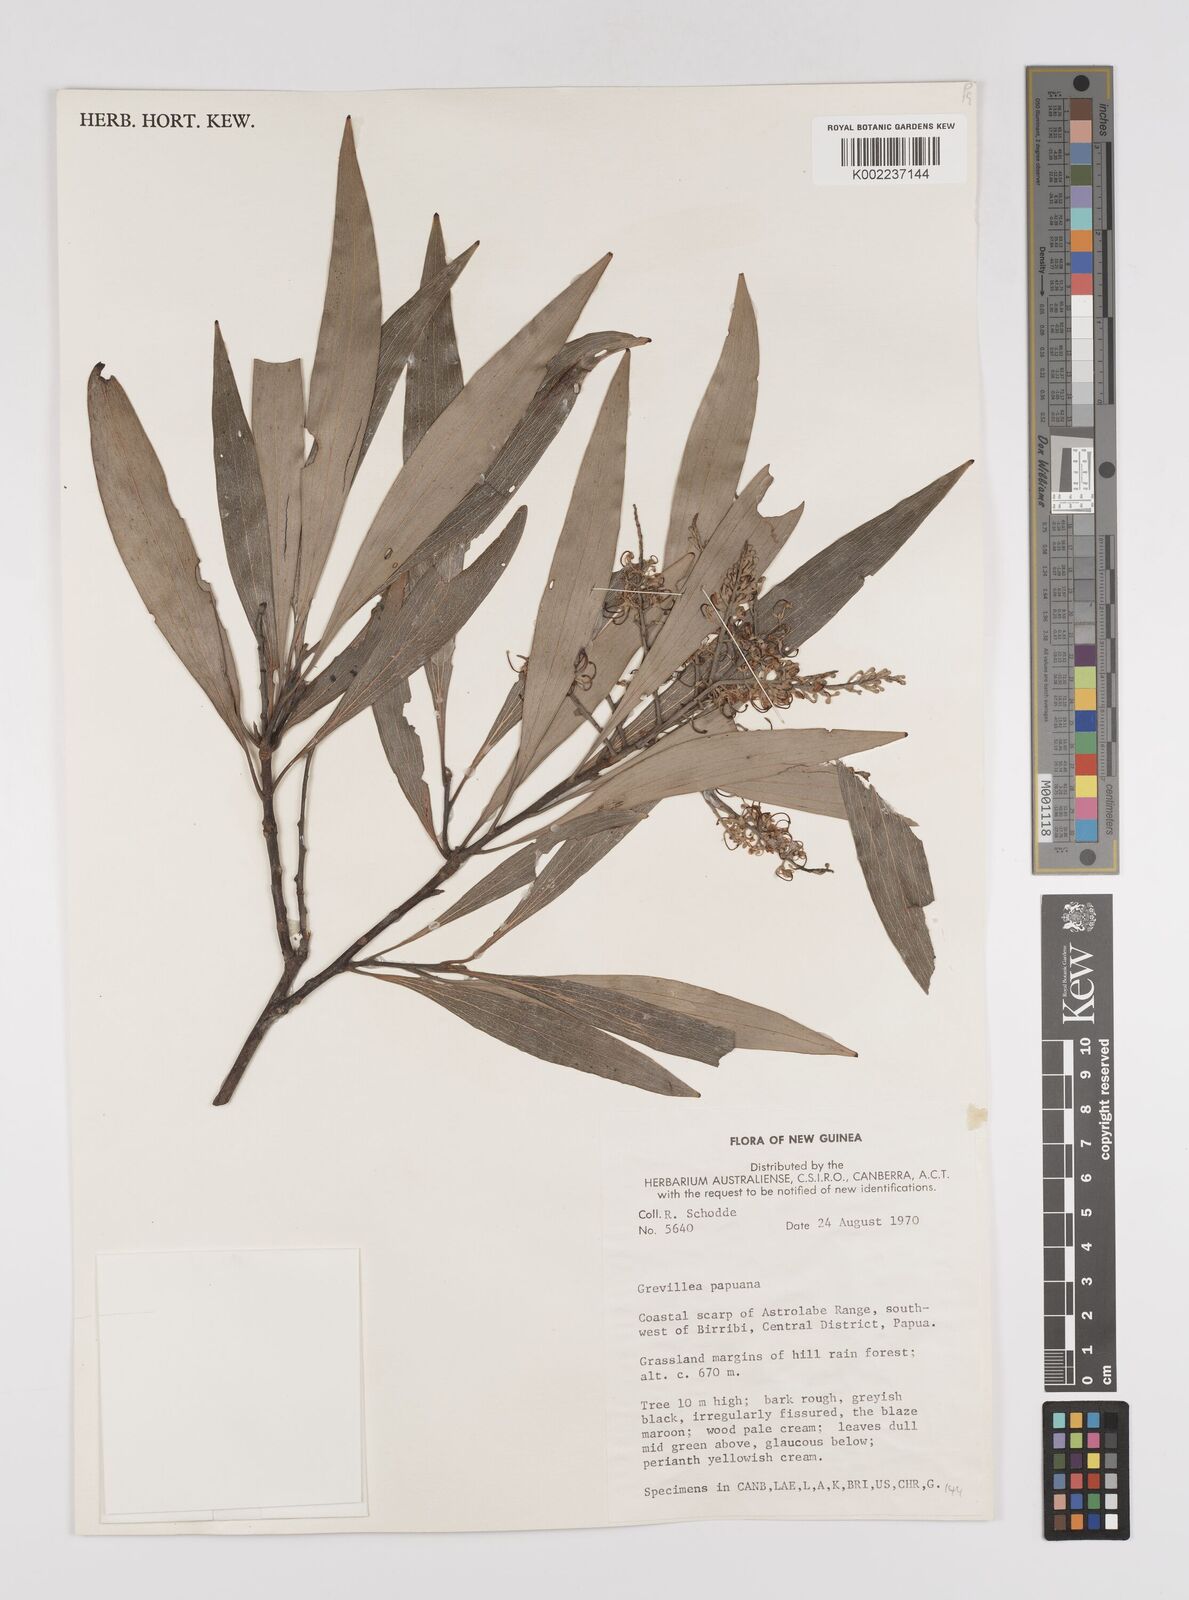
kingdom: Plantae
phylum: Tracheophyta
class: Magnoliopsida
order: Proteales
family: Proteaceae
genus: Grevillea
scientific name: Grevillea papuana
